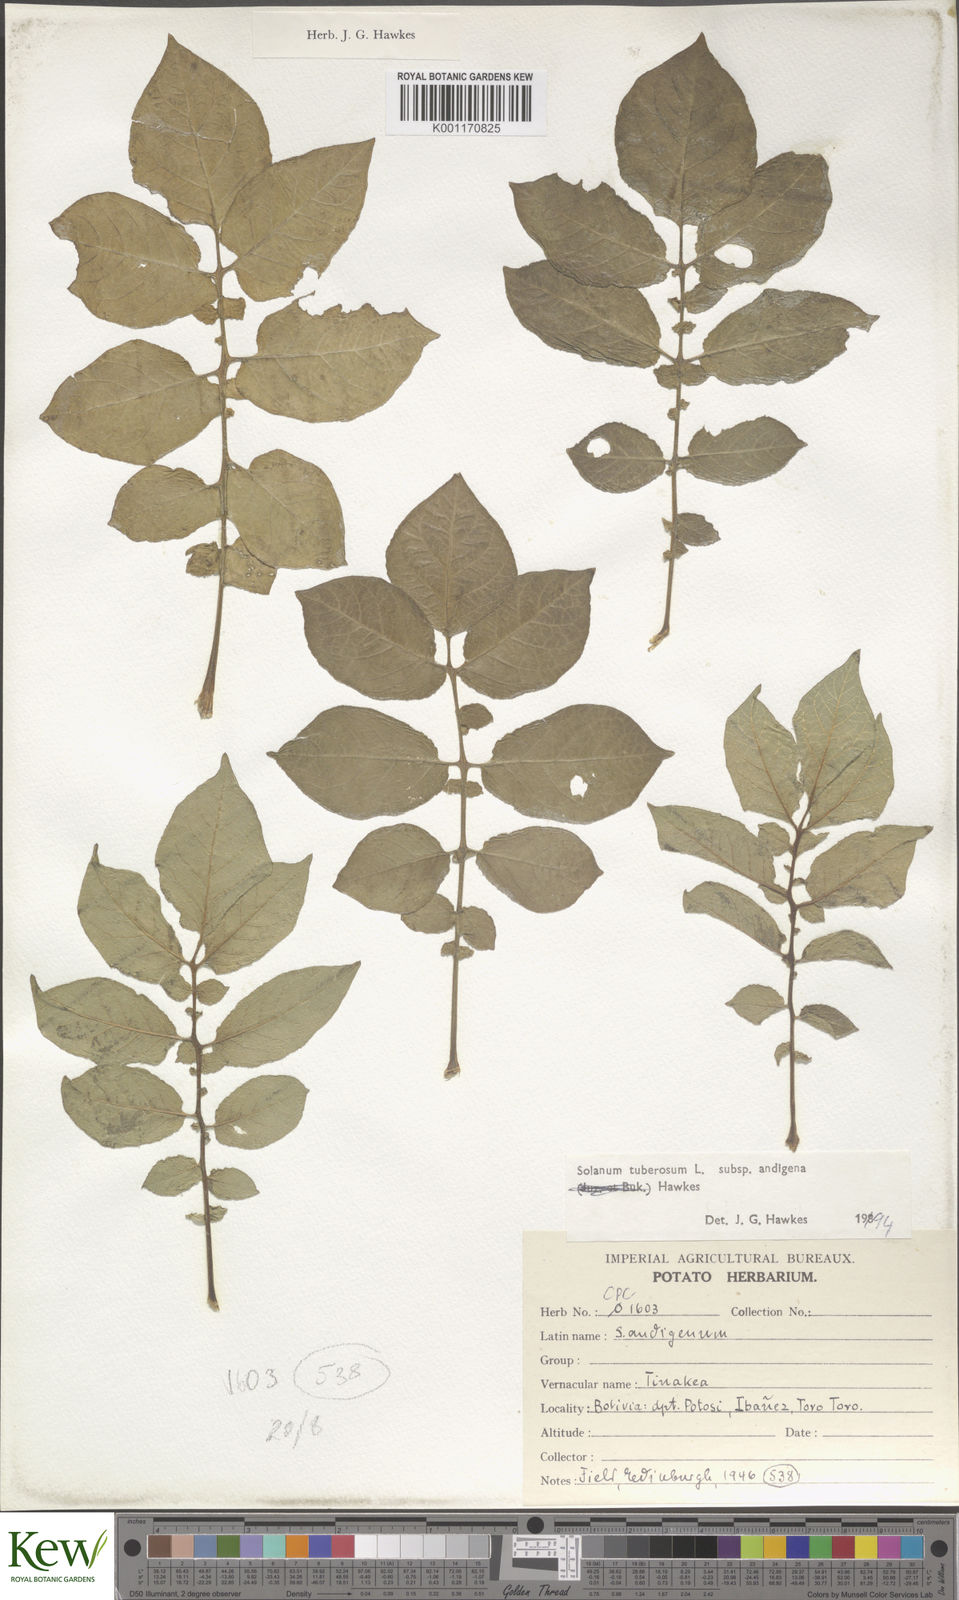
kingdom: Plantae
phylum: Tracheophyta
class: Magnoliopsida
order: Solanales
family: Solanaceae
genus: Solanum
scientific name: Solanum tuberosum
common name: Potato
